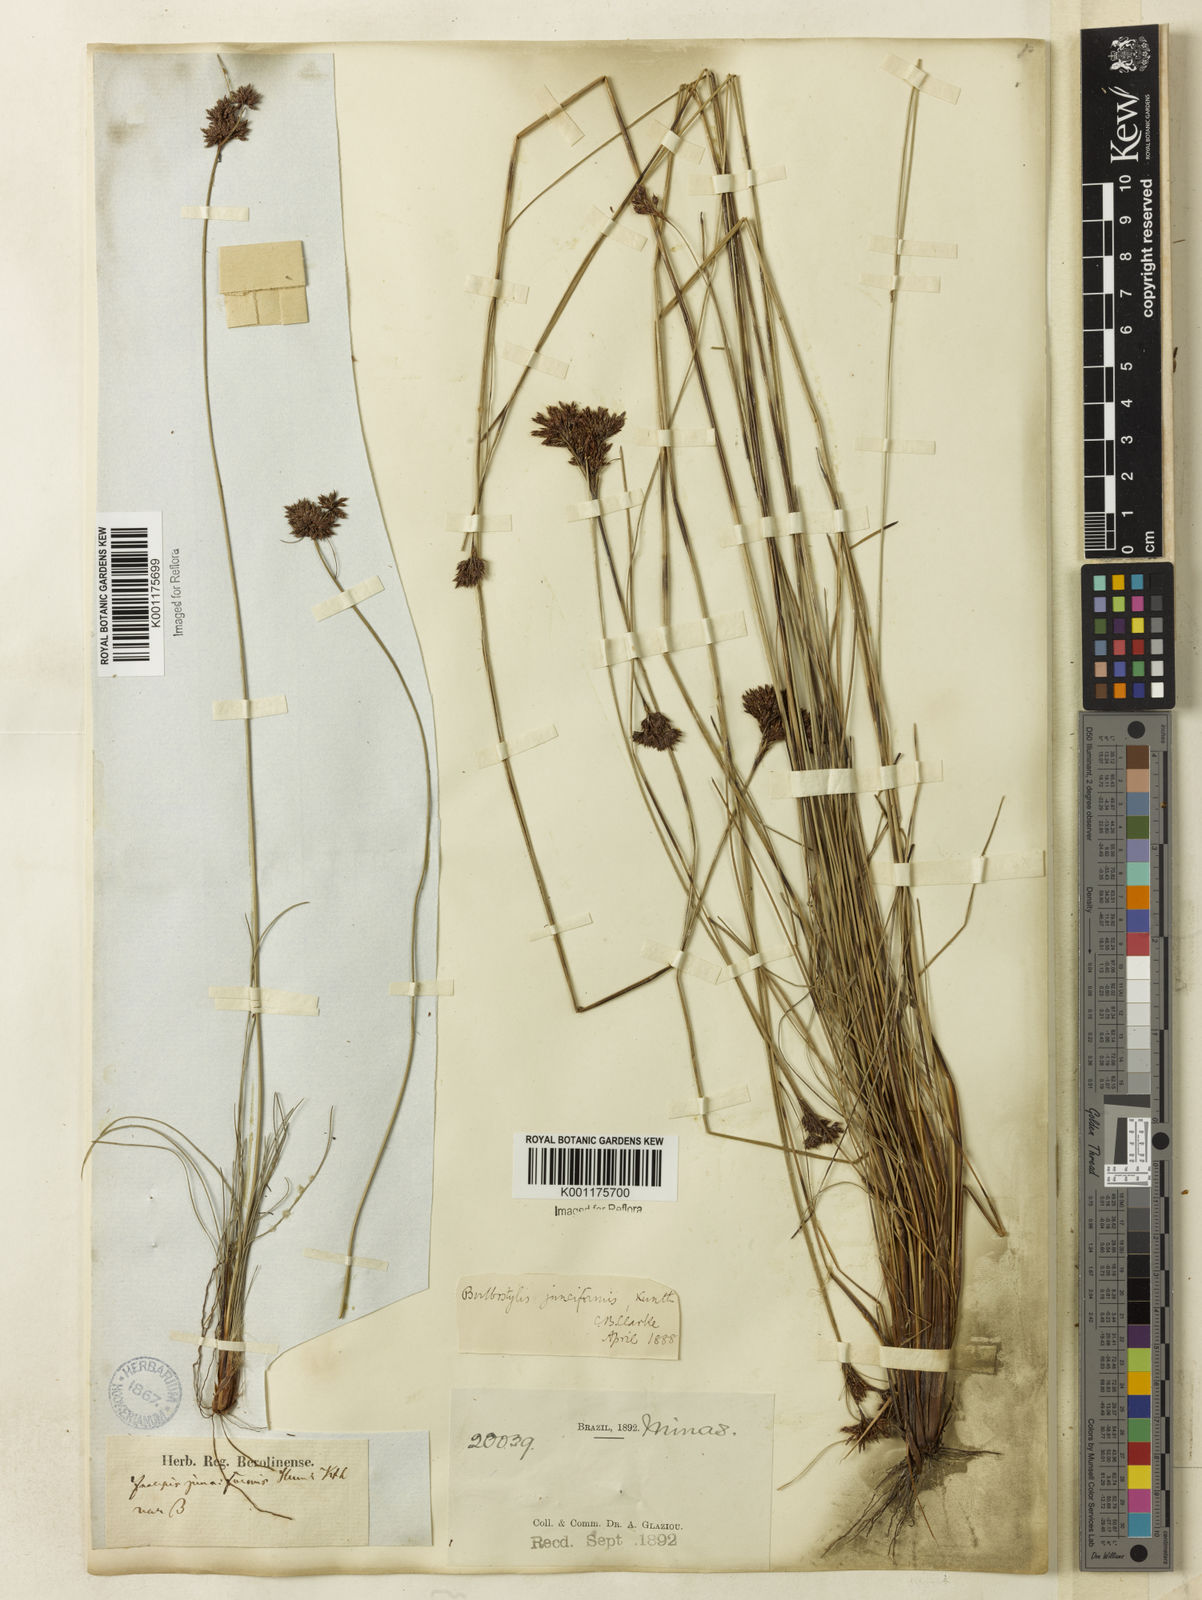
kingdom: Plantae
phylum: Tracheophyta
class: Liliopsida
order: Poales
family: Cyperaceae
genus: Bulbostylis
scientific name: Bulbostylis junciformis
